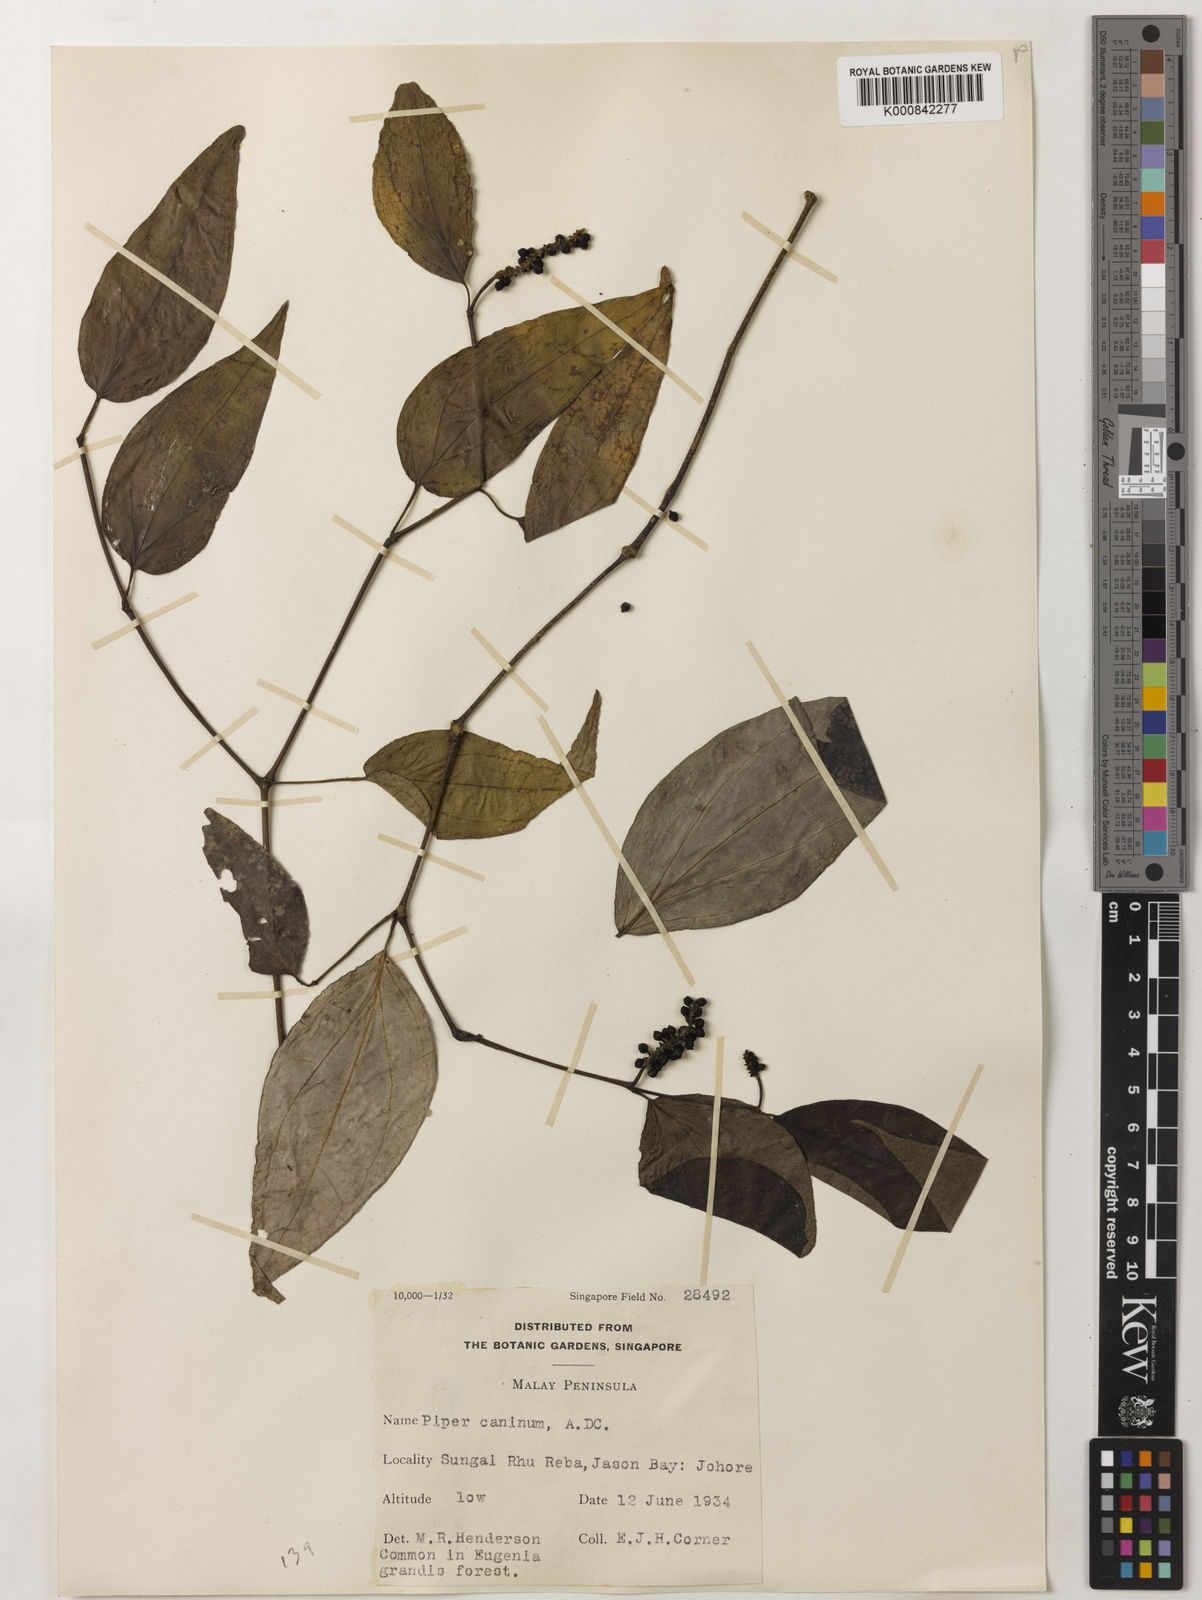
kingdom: Plantae
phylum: Tracheophyta
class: Magnoliopsida
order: Piperales
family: Piperaceae
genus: Piper
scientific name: Piper lanatum
